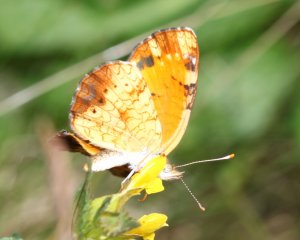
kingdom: Animalia
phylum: Arthropoda
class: Insecta
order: Lepidoptera
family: Nymphalidae
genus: Phyciodes
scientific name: Phyciodes tharos
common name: Northern Crescent
